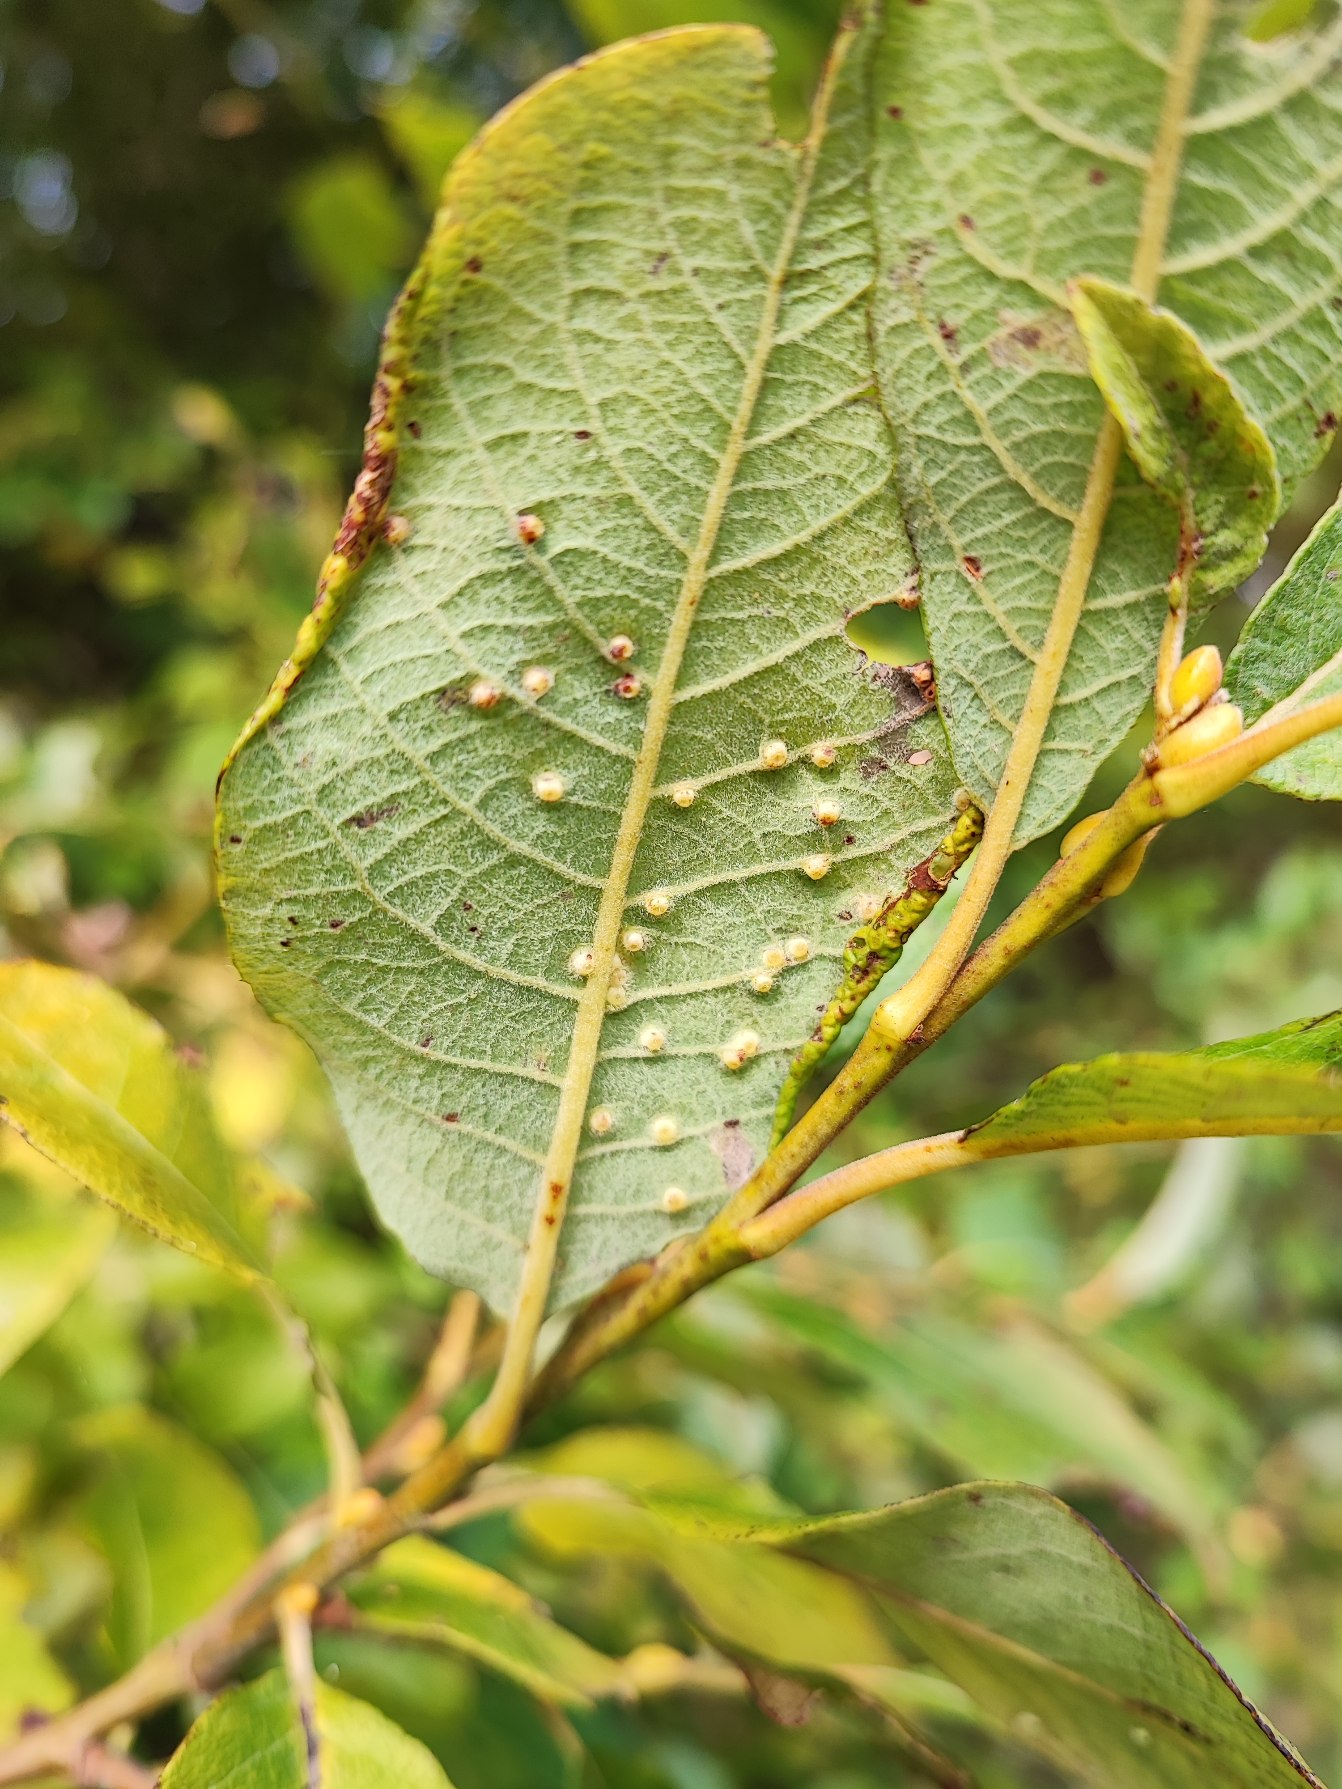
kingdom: Animalia
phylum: Arthropoda
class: Insecta
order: Diptera
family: Cecidomyiidae
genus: Iteomyia
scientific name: Iteomyia capreae
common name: Lille seljebladgalmyg
